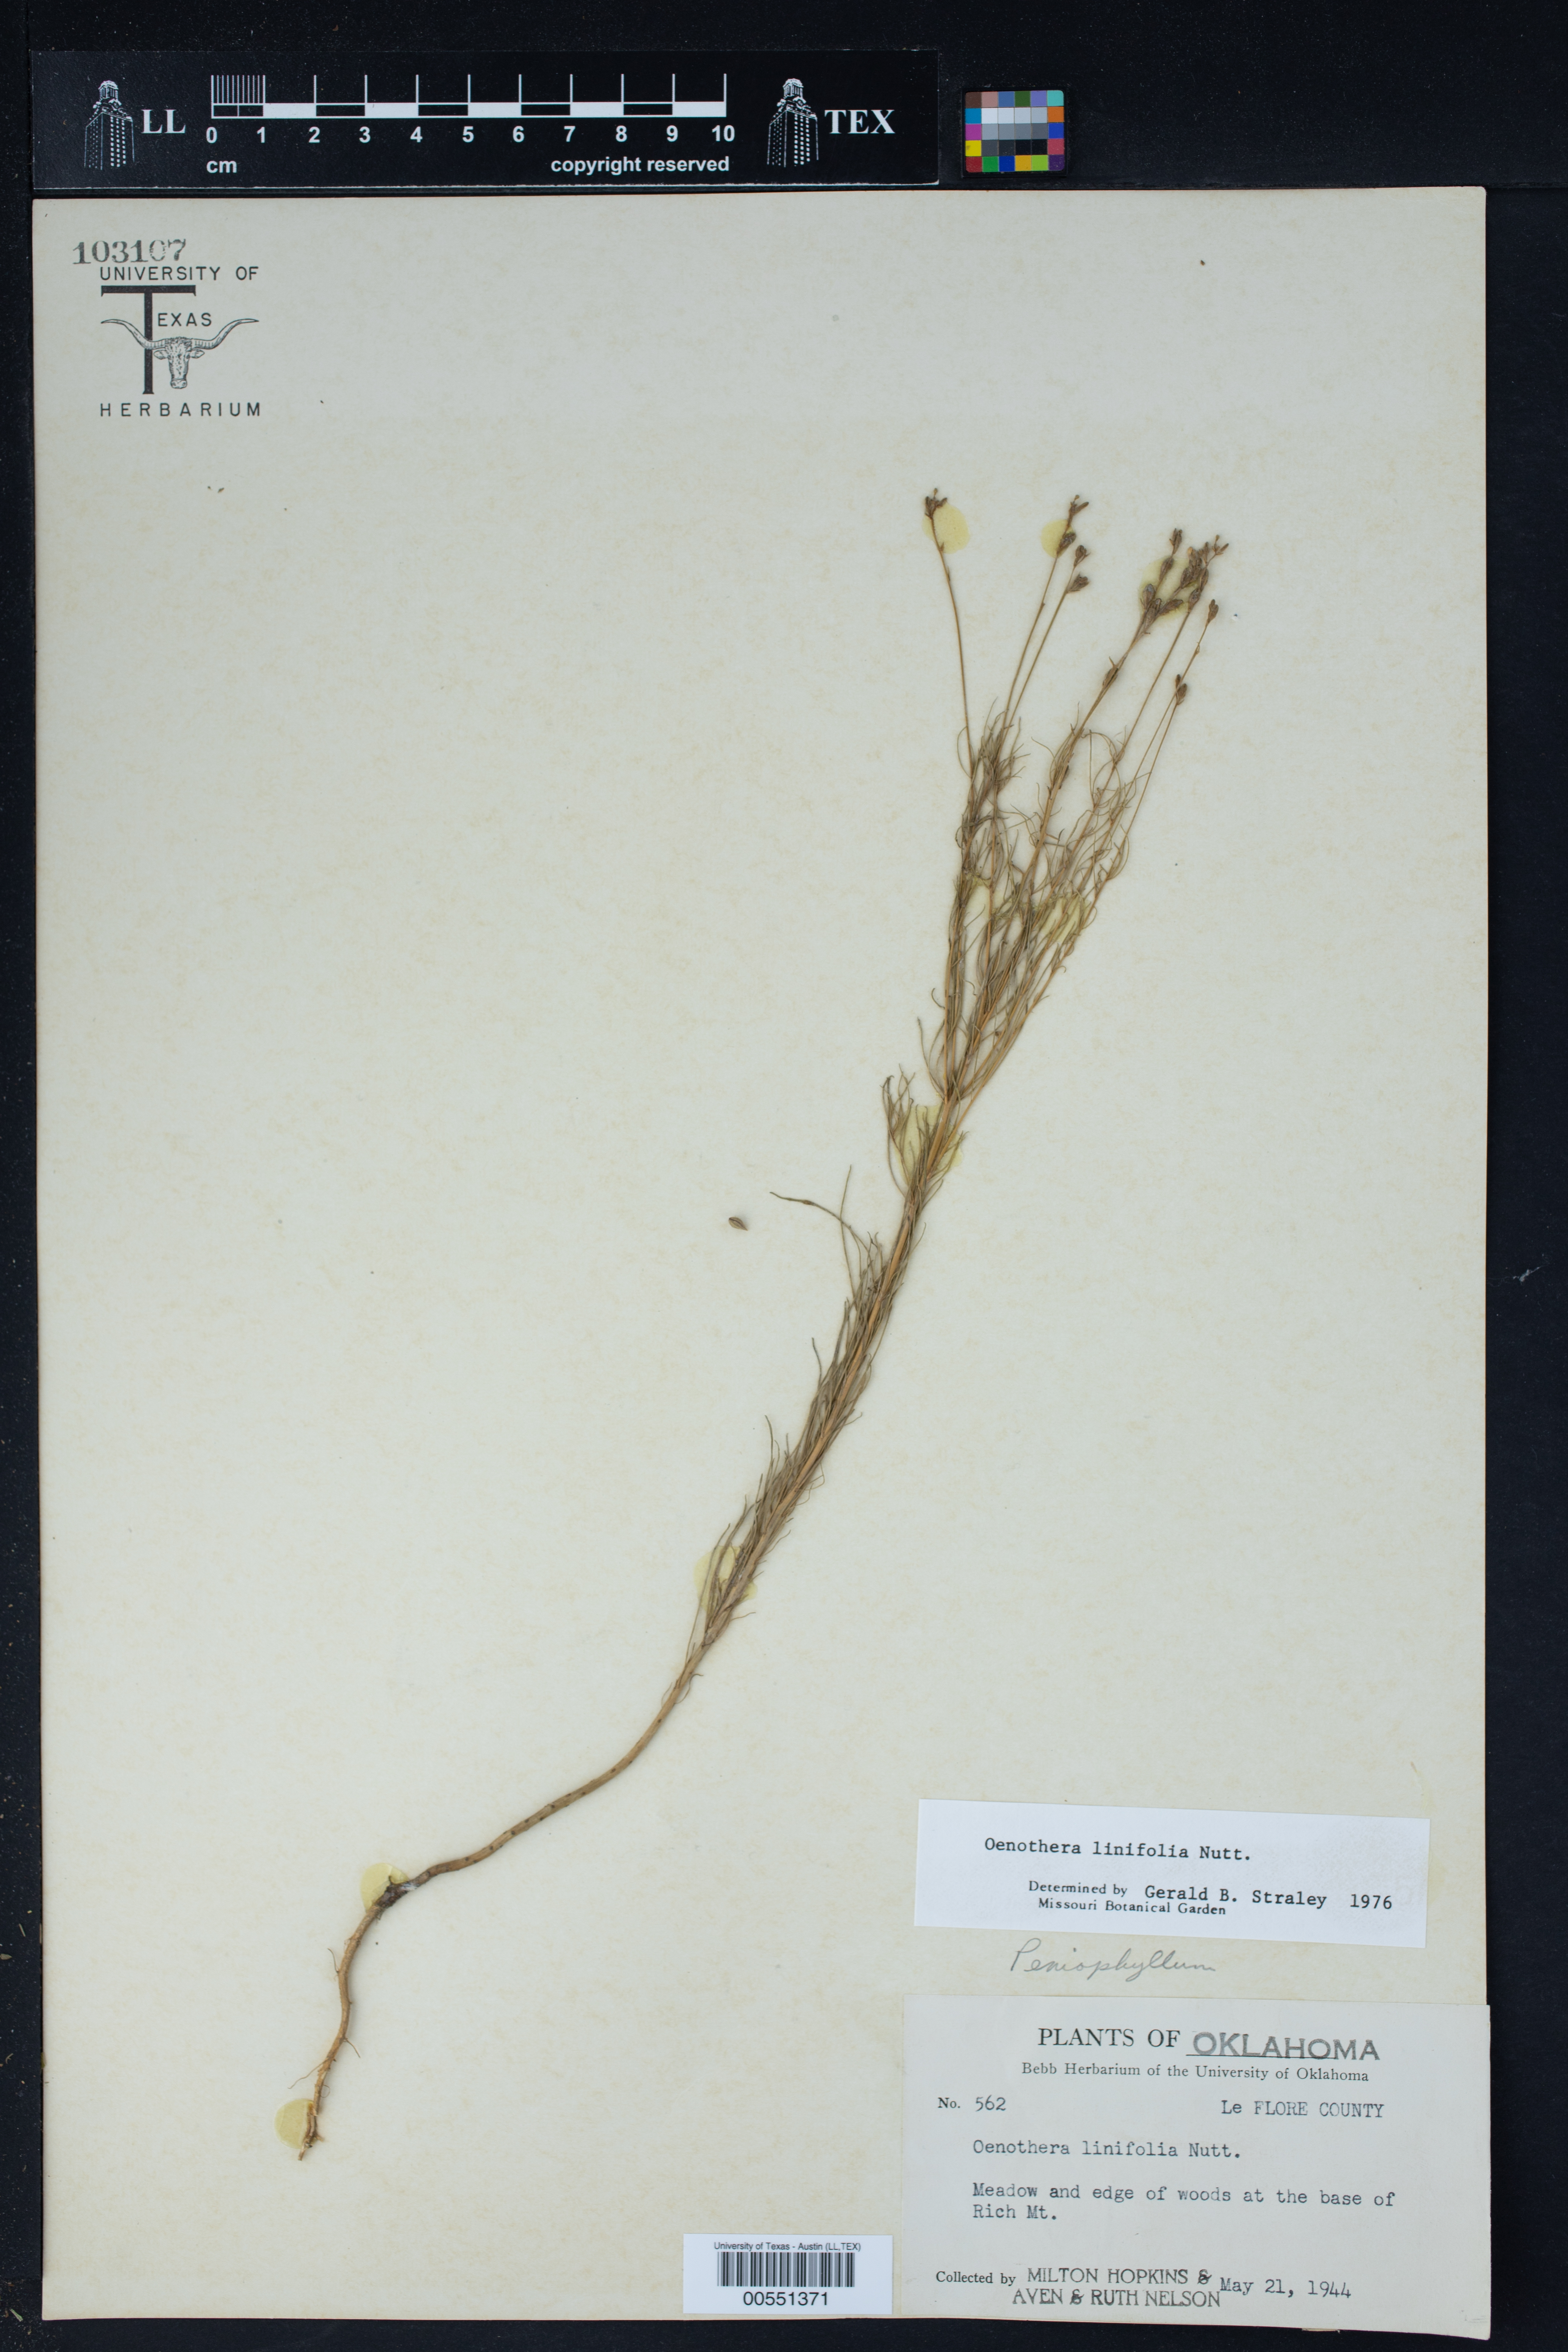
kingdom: Plantae
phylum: Tracheophyta
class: Magnoliopsida
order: Myrtales
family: Onagraceae
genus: Oenothera
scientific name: Oenothera linifolia
